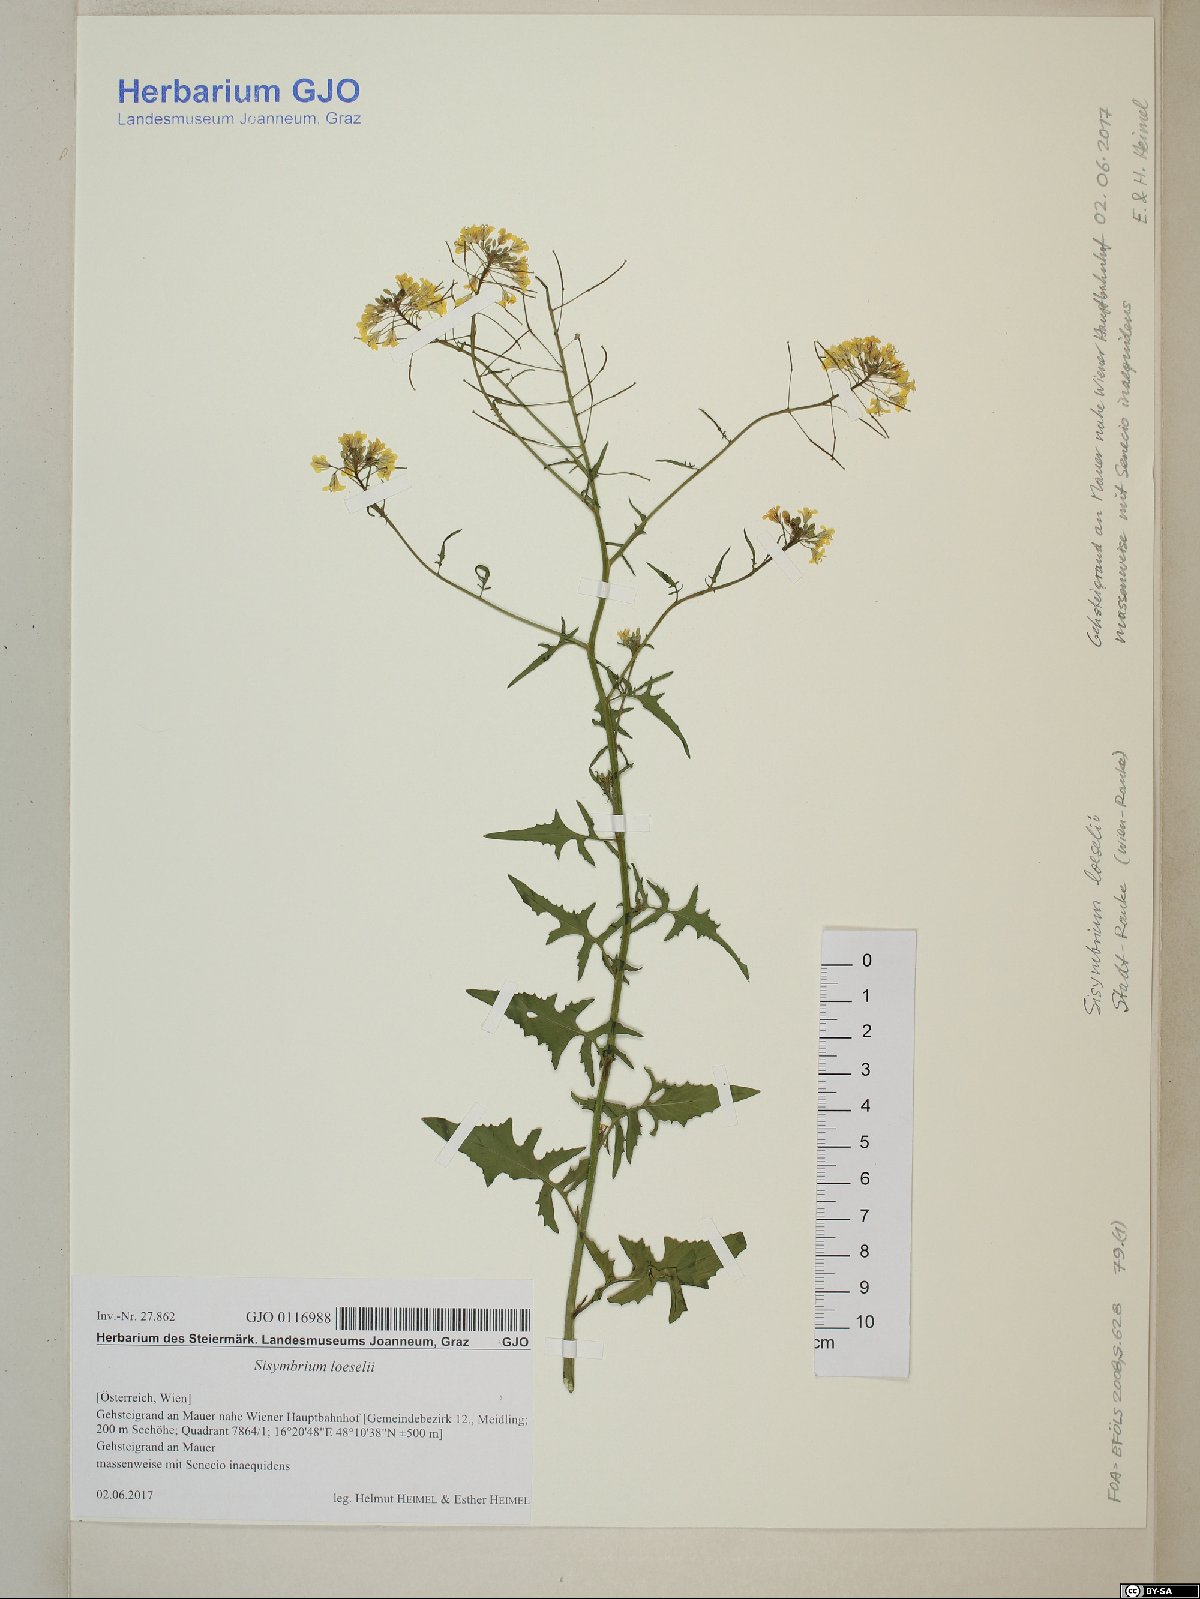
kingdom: Plantae
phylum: Tracheophyta
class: Magnoliopsida
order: Brassicales
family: Brassicaceae
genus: Sisymbrium
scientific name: Sisymbrium loeselii
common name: False london-rocket
